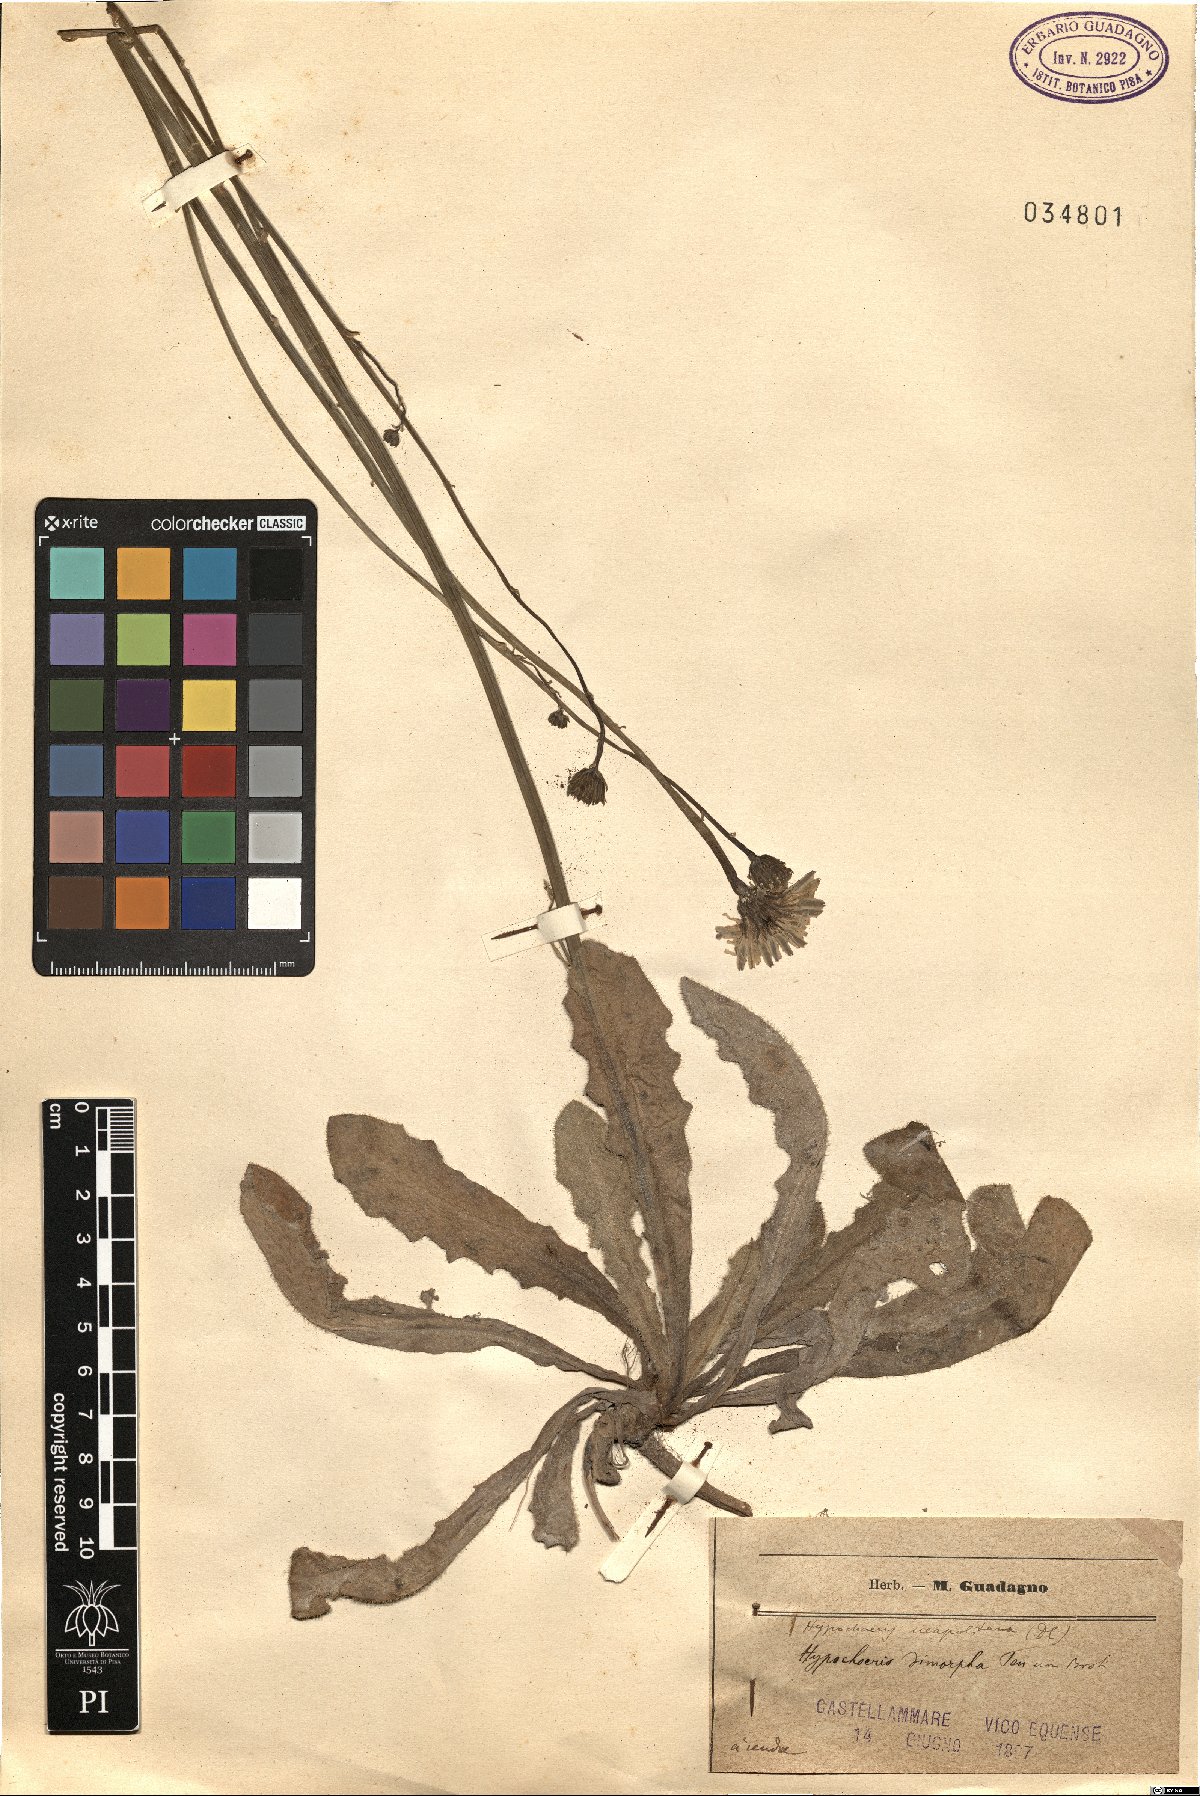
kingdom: Plantae
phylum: Tracheophyta
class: Magnoliopsida
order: Asterales
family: Asteraceae
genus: Hypochaeris
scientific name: Hypochaeris radicata
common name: Flatweed
